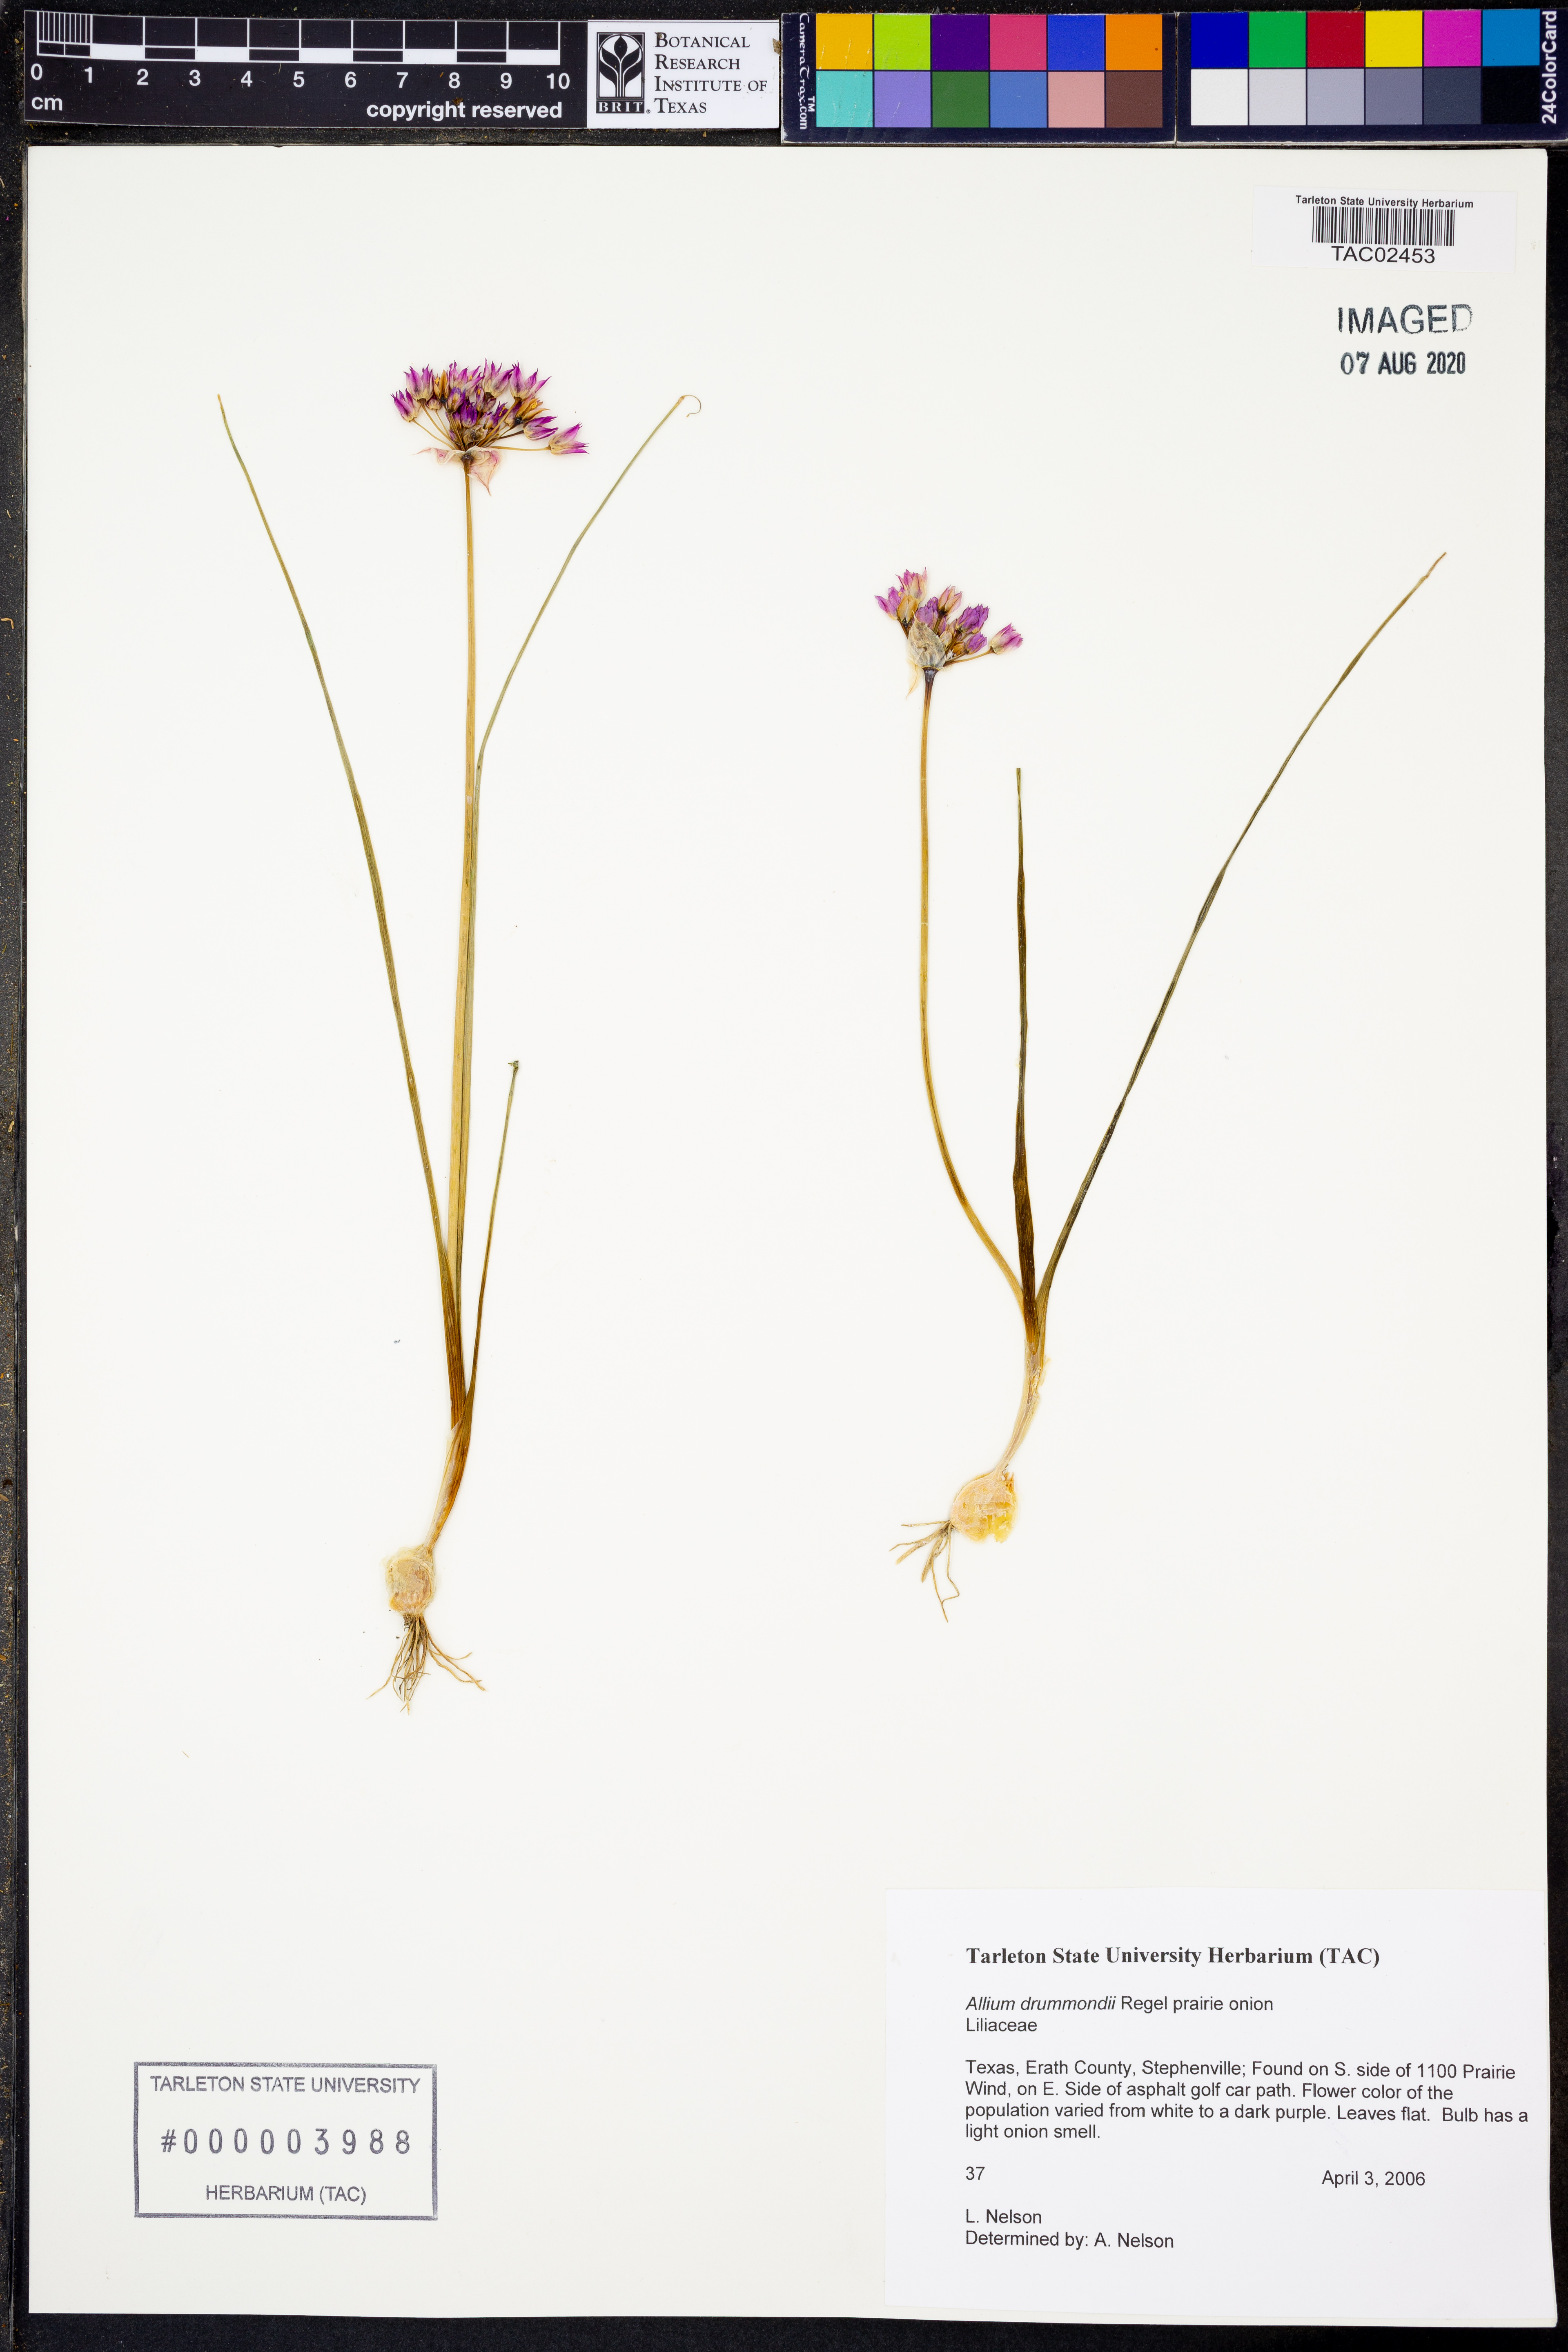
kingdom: Plantae
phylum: Tracheophyta
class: Liliopsida
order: Asparagales
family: Amaryllidaceae
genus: Allium
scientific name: Allium drummondii
